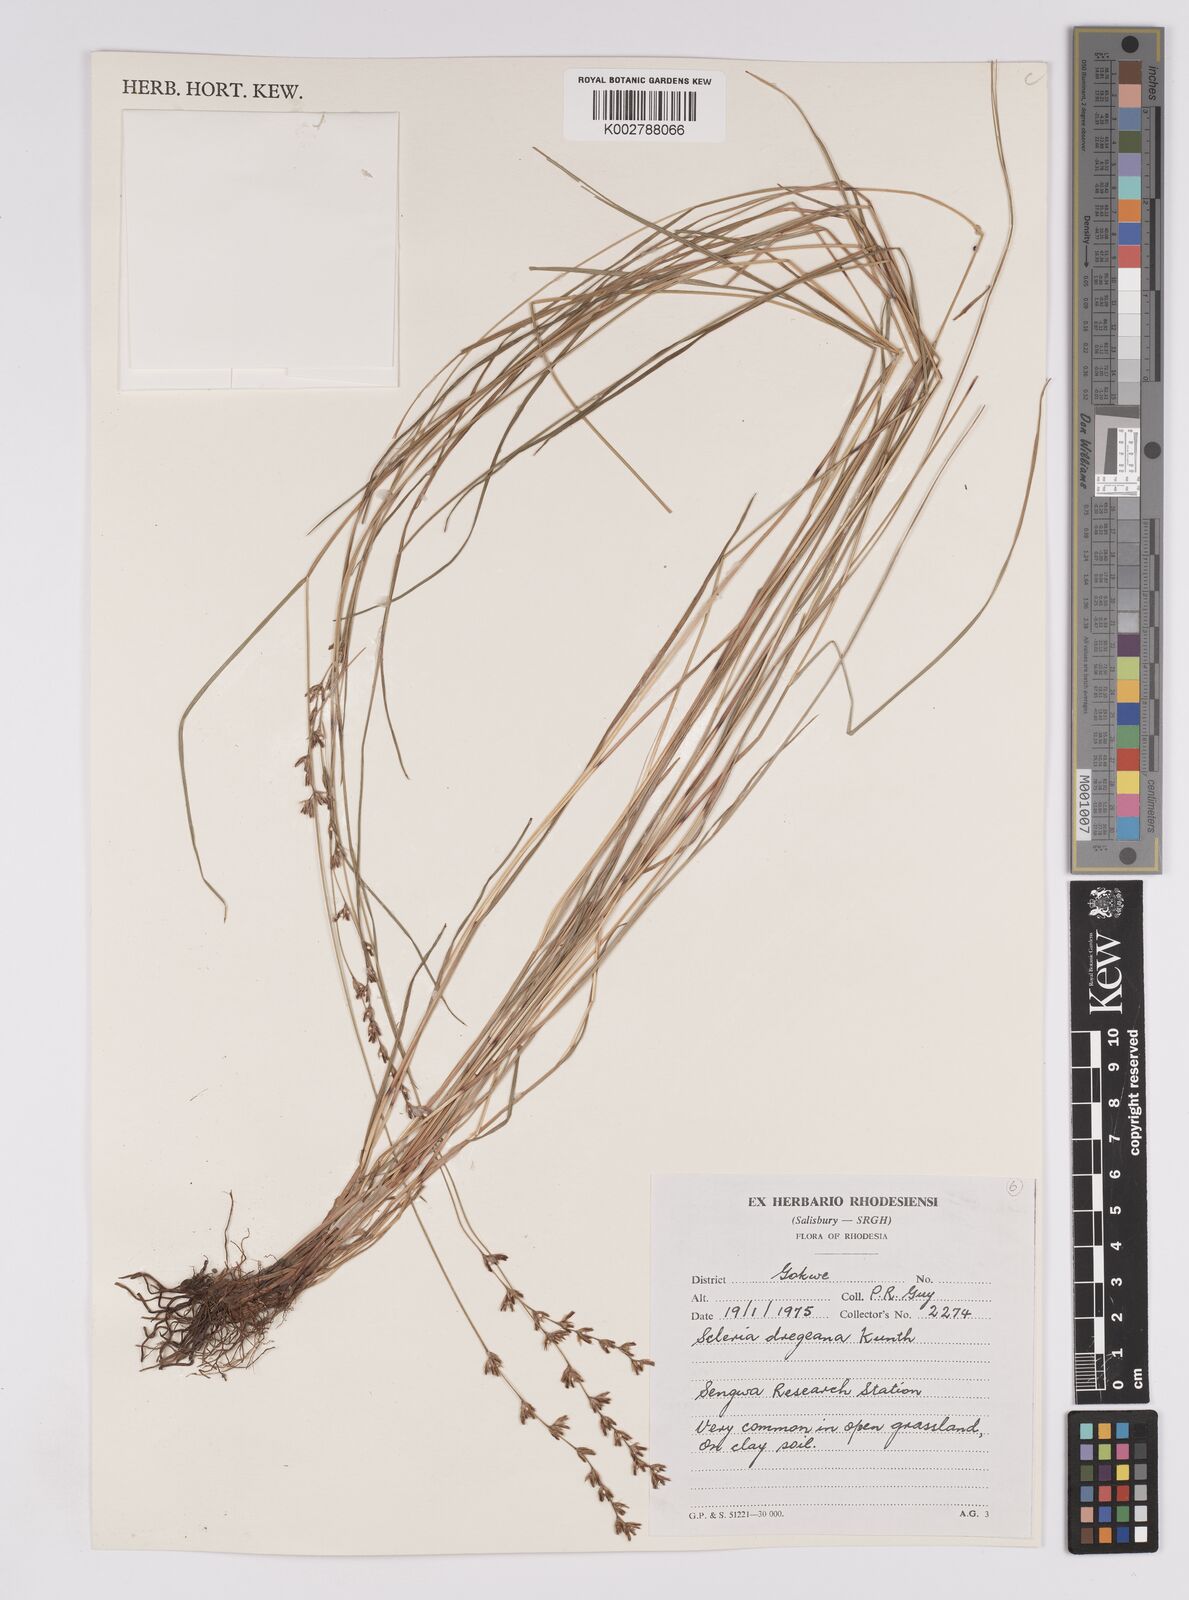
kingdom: Plantae
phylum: Tracheophyta
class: Liliopsida
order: Poales
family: Cyperaceae
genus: Scleria
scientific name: Scleria dregeana
